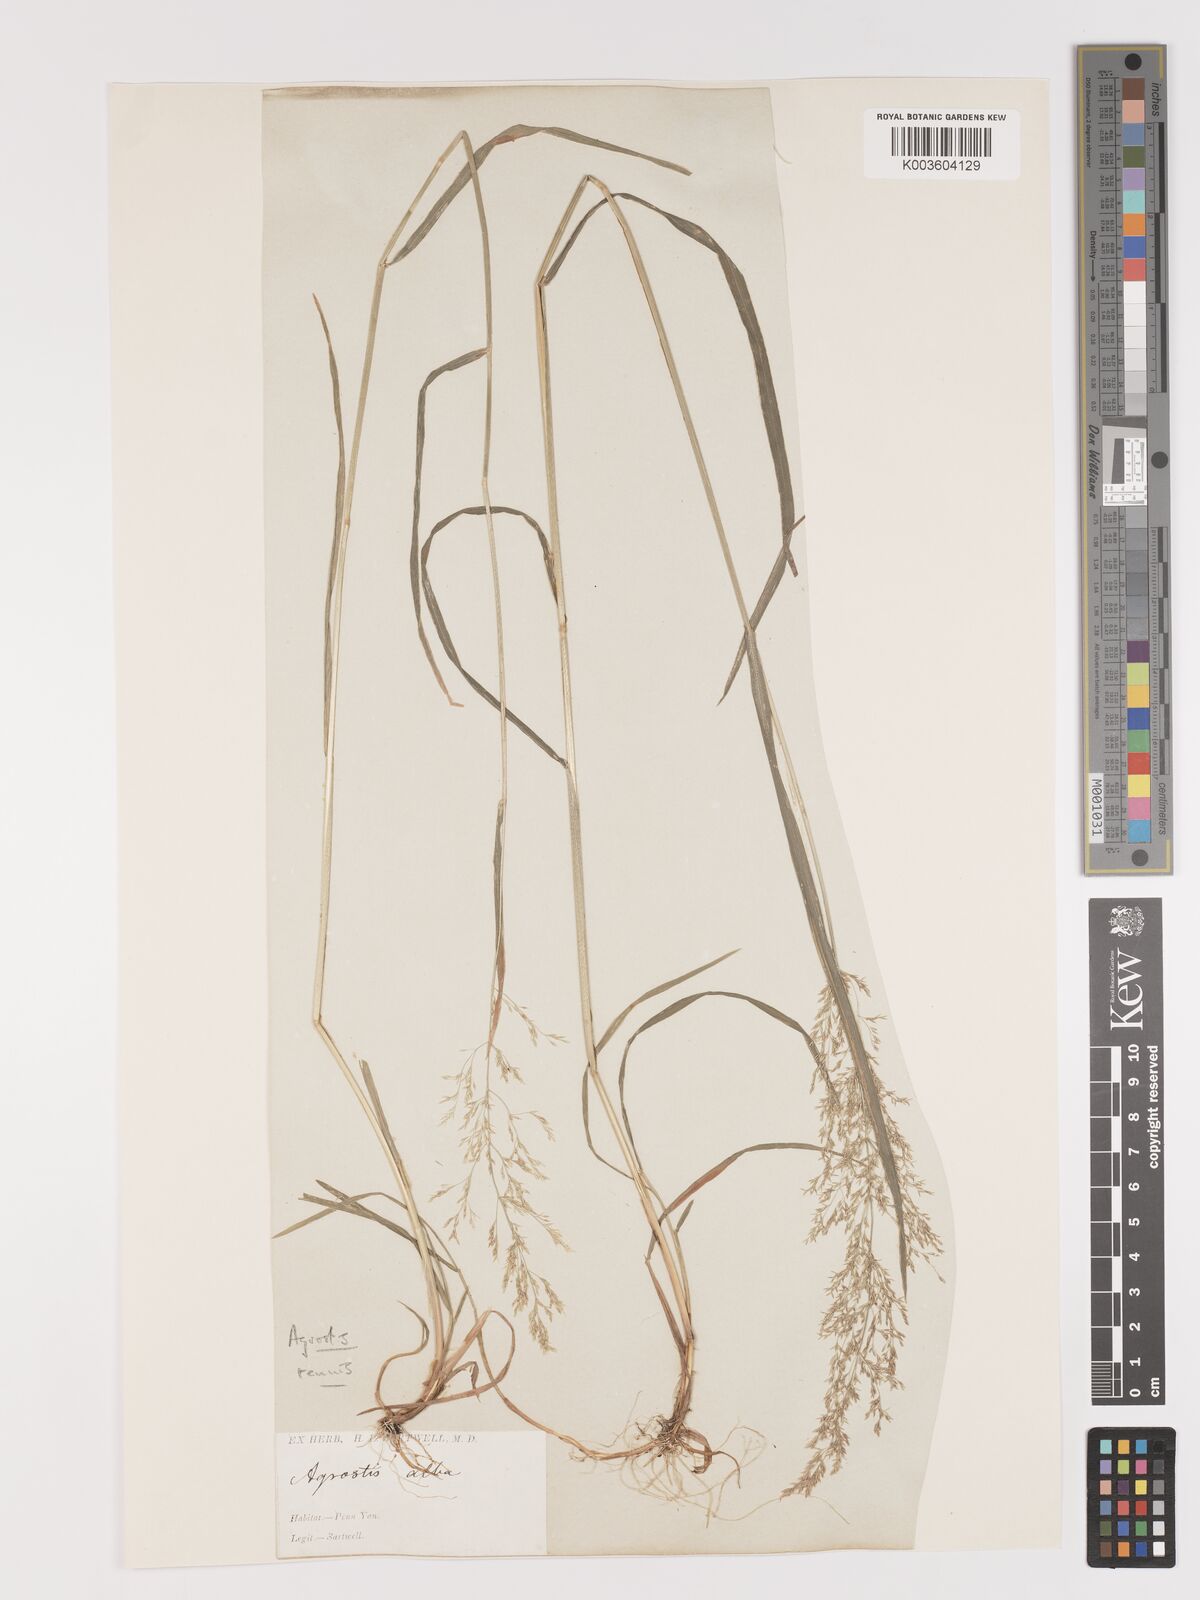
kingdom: Plantae
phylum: Tracheophyta
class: Liliopsida
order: Poales
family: Poaceae
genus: Agrostis
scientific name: Agrostis capillaris
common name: Colonial bentgrass
